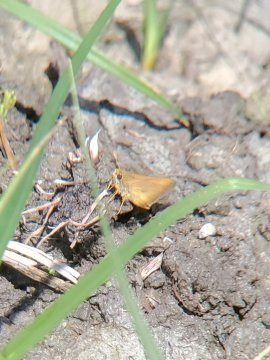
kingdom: Animalia
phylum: Arthropoda
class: Insecta
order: Lepidoptera
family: Hesperiidae
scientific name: Hesperiidae
